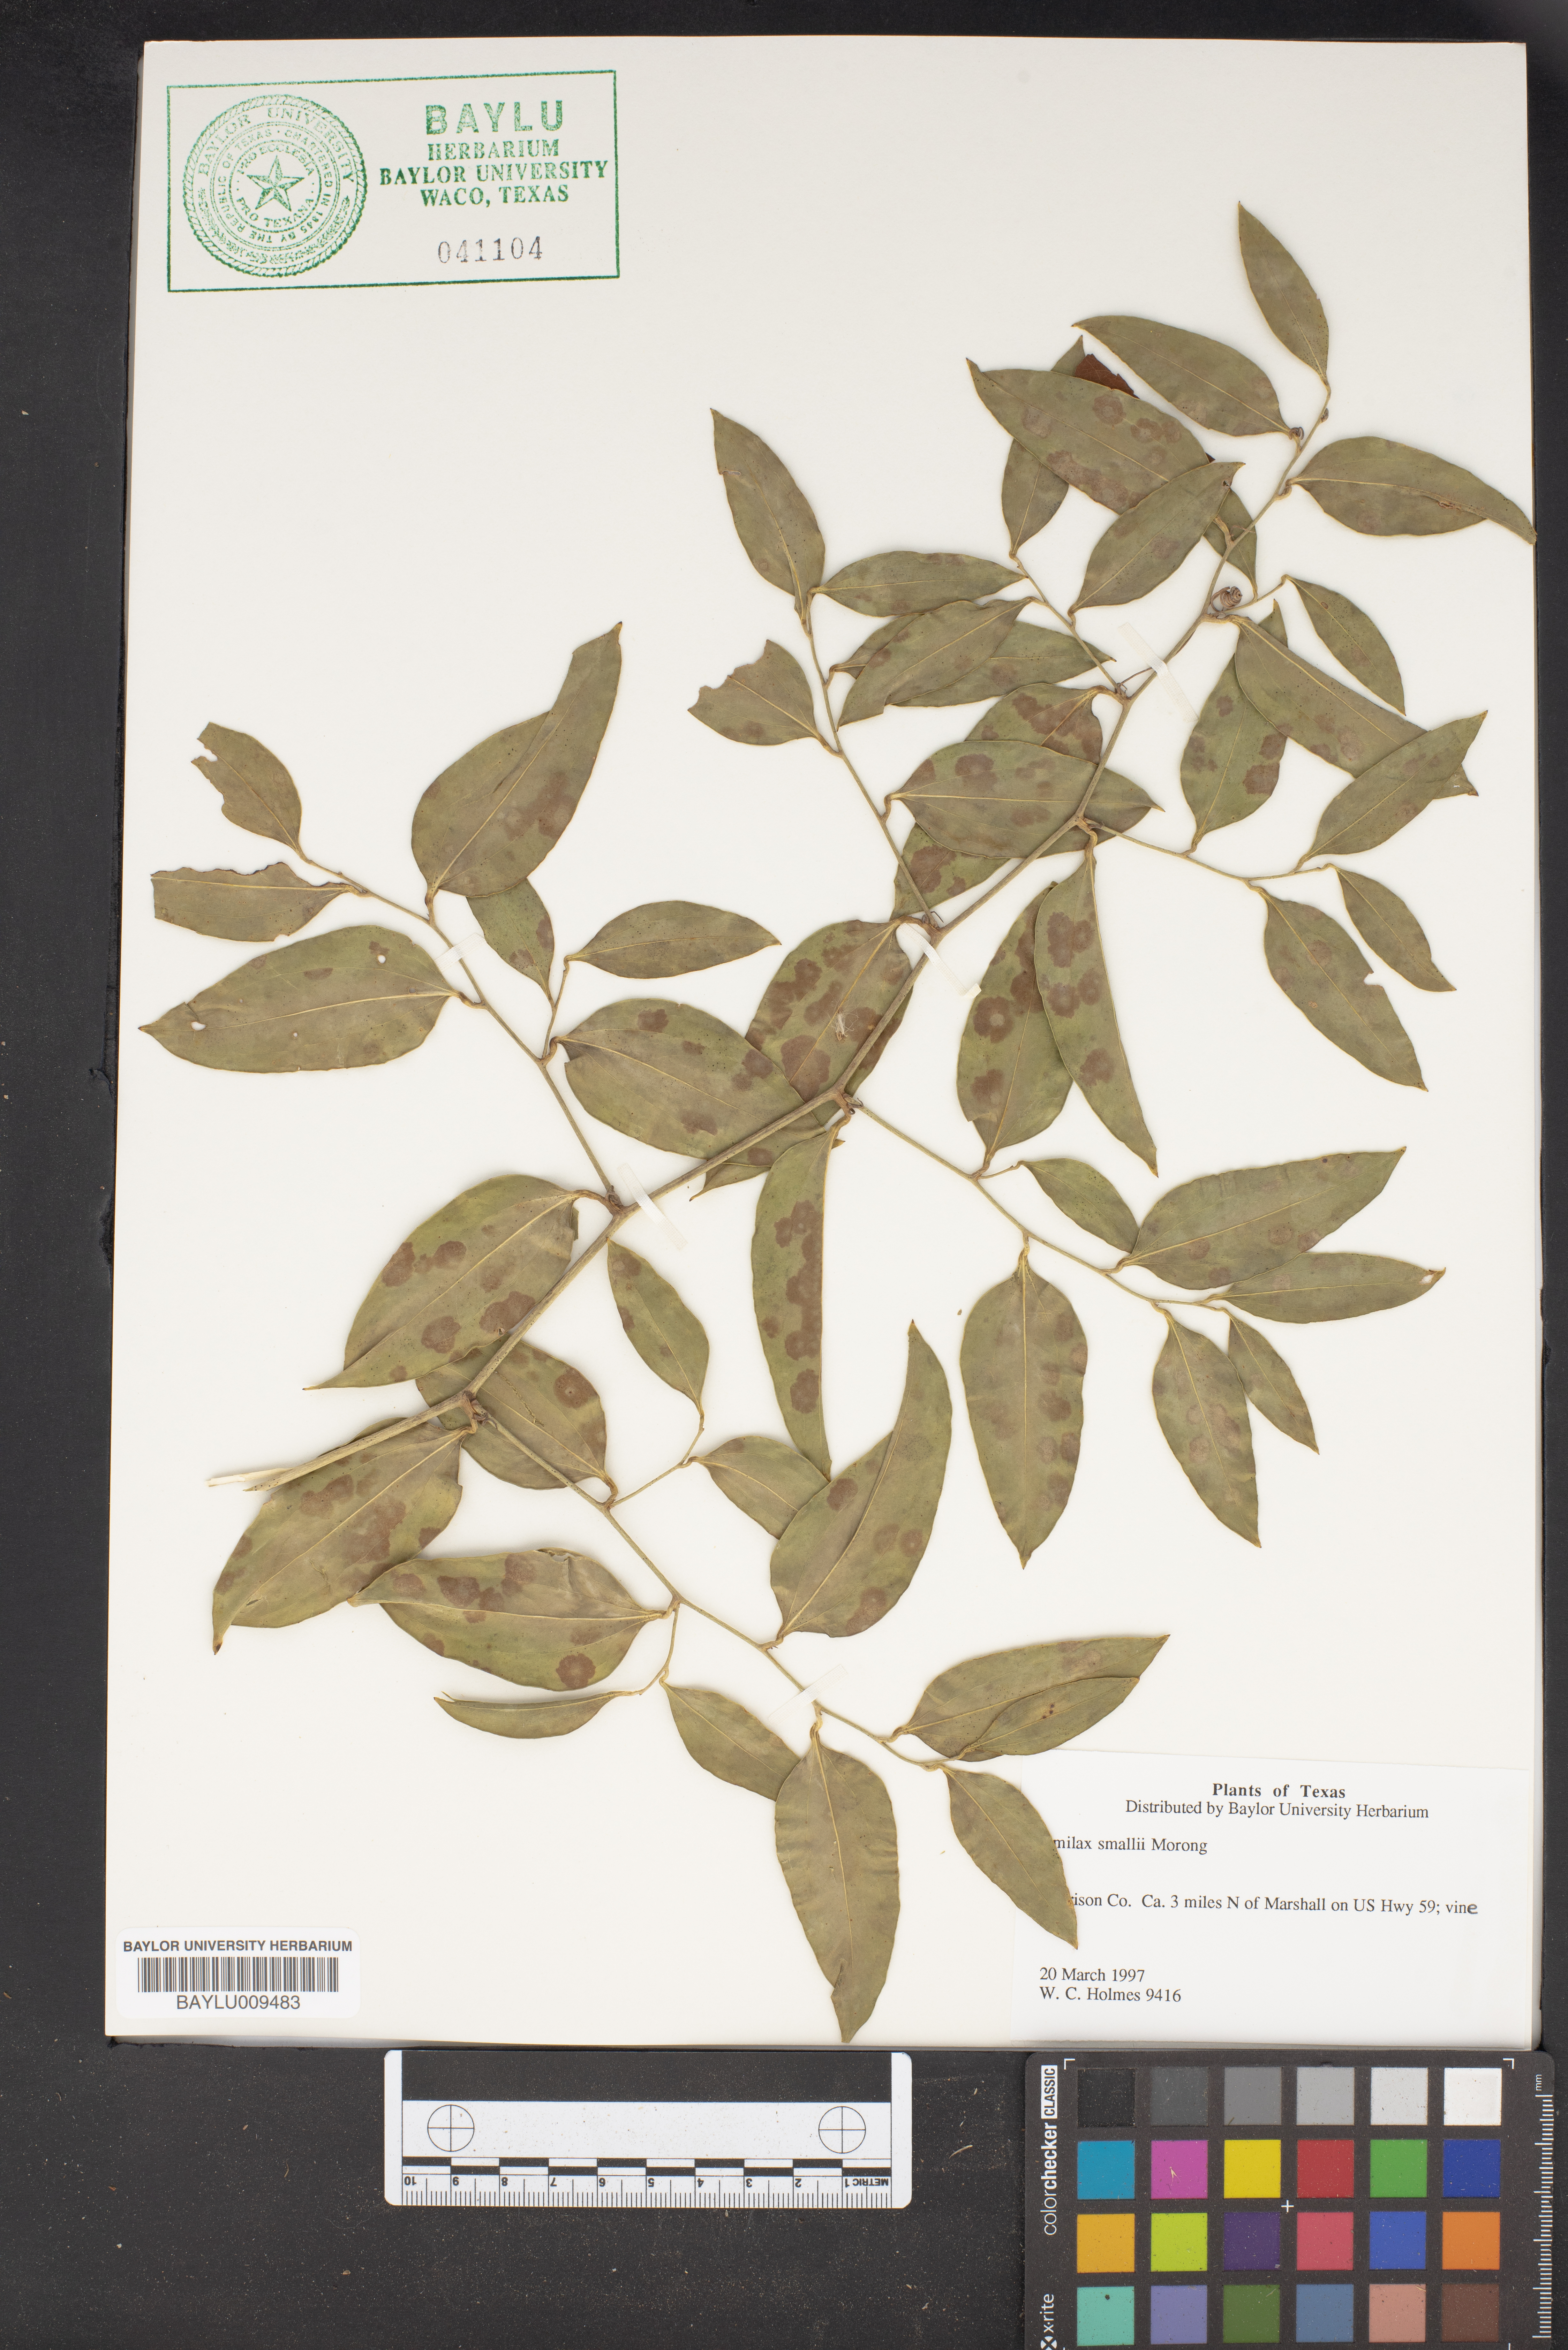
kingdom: Plantae
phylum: Tracheophyta
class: Liliopsida
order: Liliales
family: Smilacaceae
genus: Smilax
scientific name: Smilax maritima
